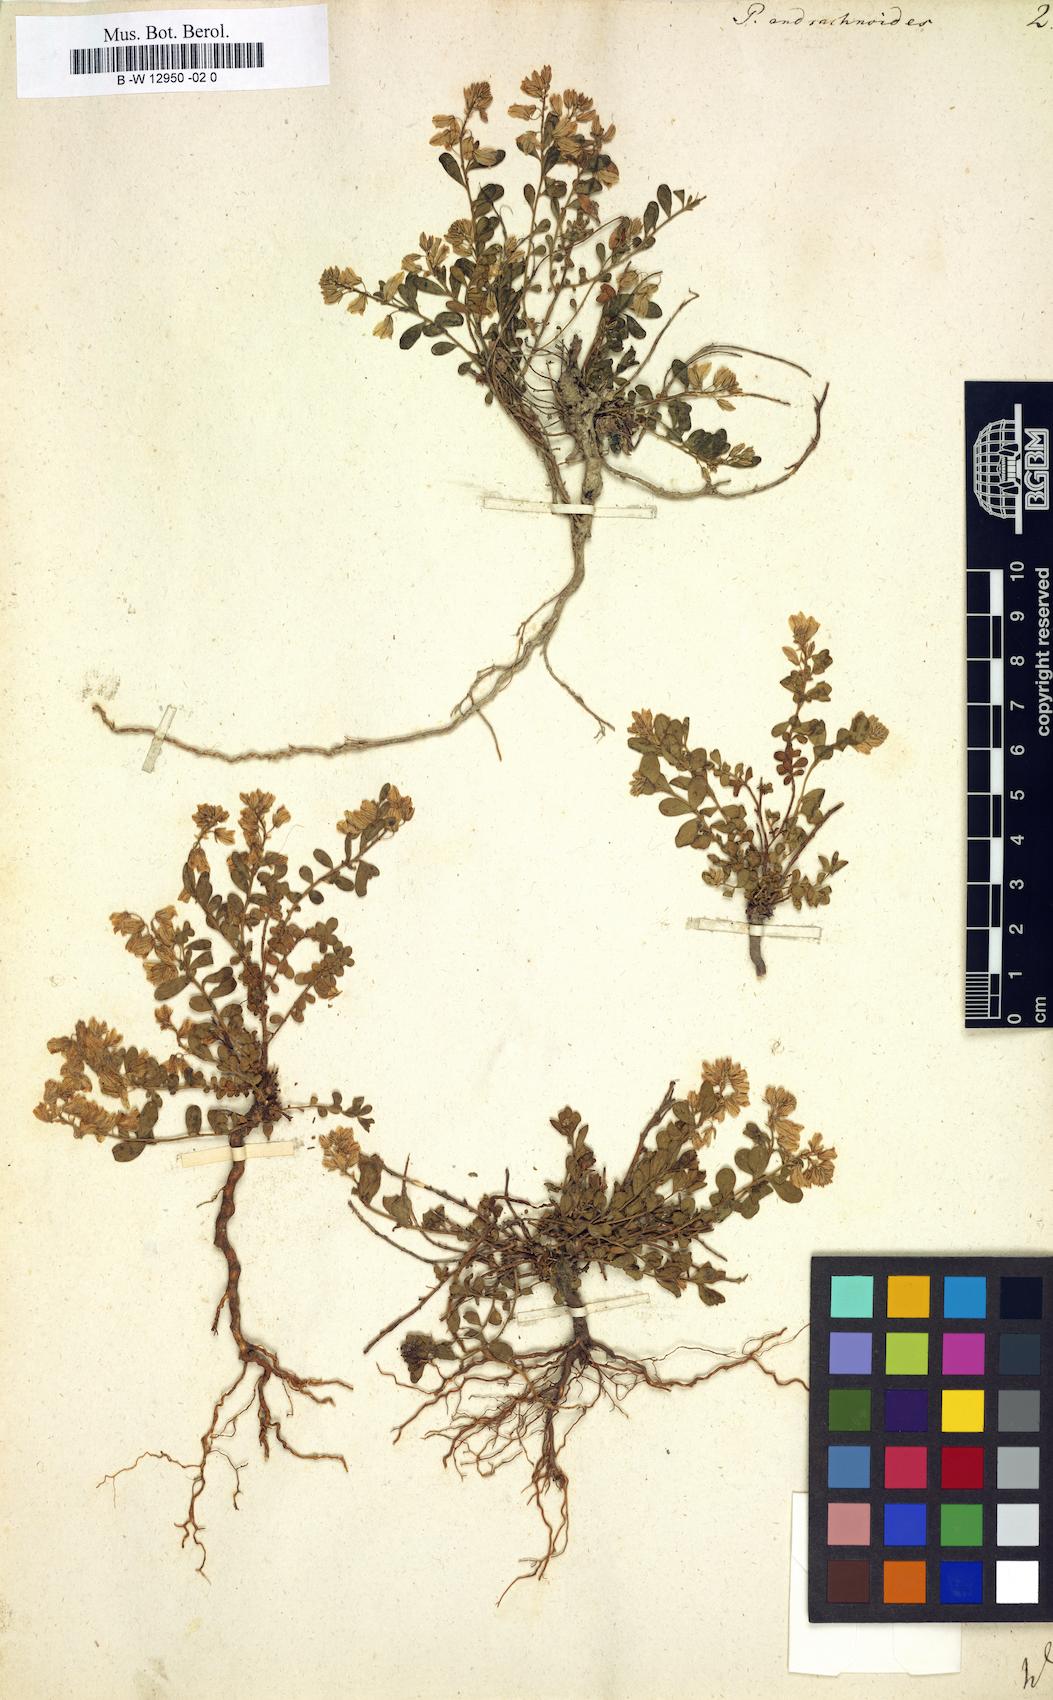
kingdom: Plantae
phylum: Tracheophyta
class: Magnoliopsida
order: Fabales
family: Polygalaceae
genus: Polygala
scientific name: Polygala supina
